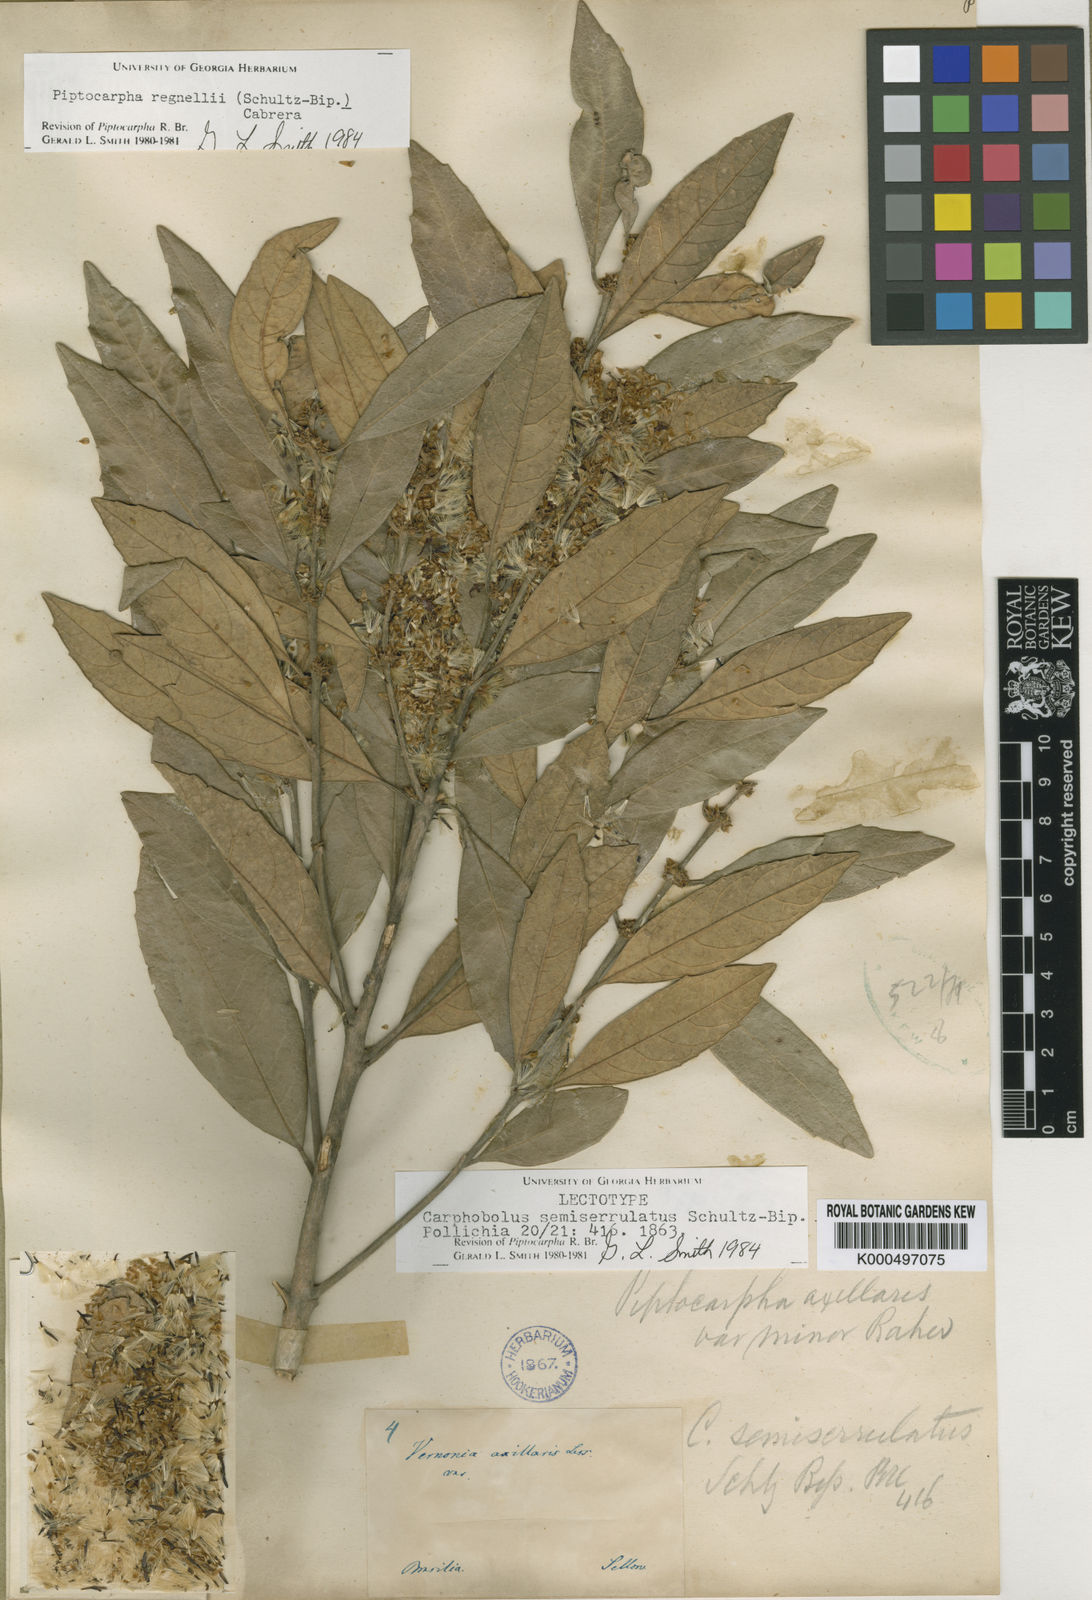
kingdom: Plantae
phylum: Tracheophyta
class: Magnoliopsida
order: Asterales
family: Asteraceae
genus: Piptocarpha
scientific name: Piptocarpha regnellii
